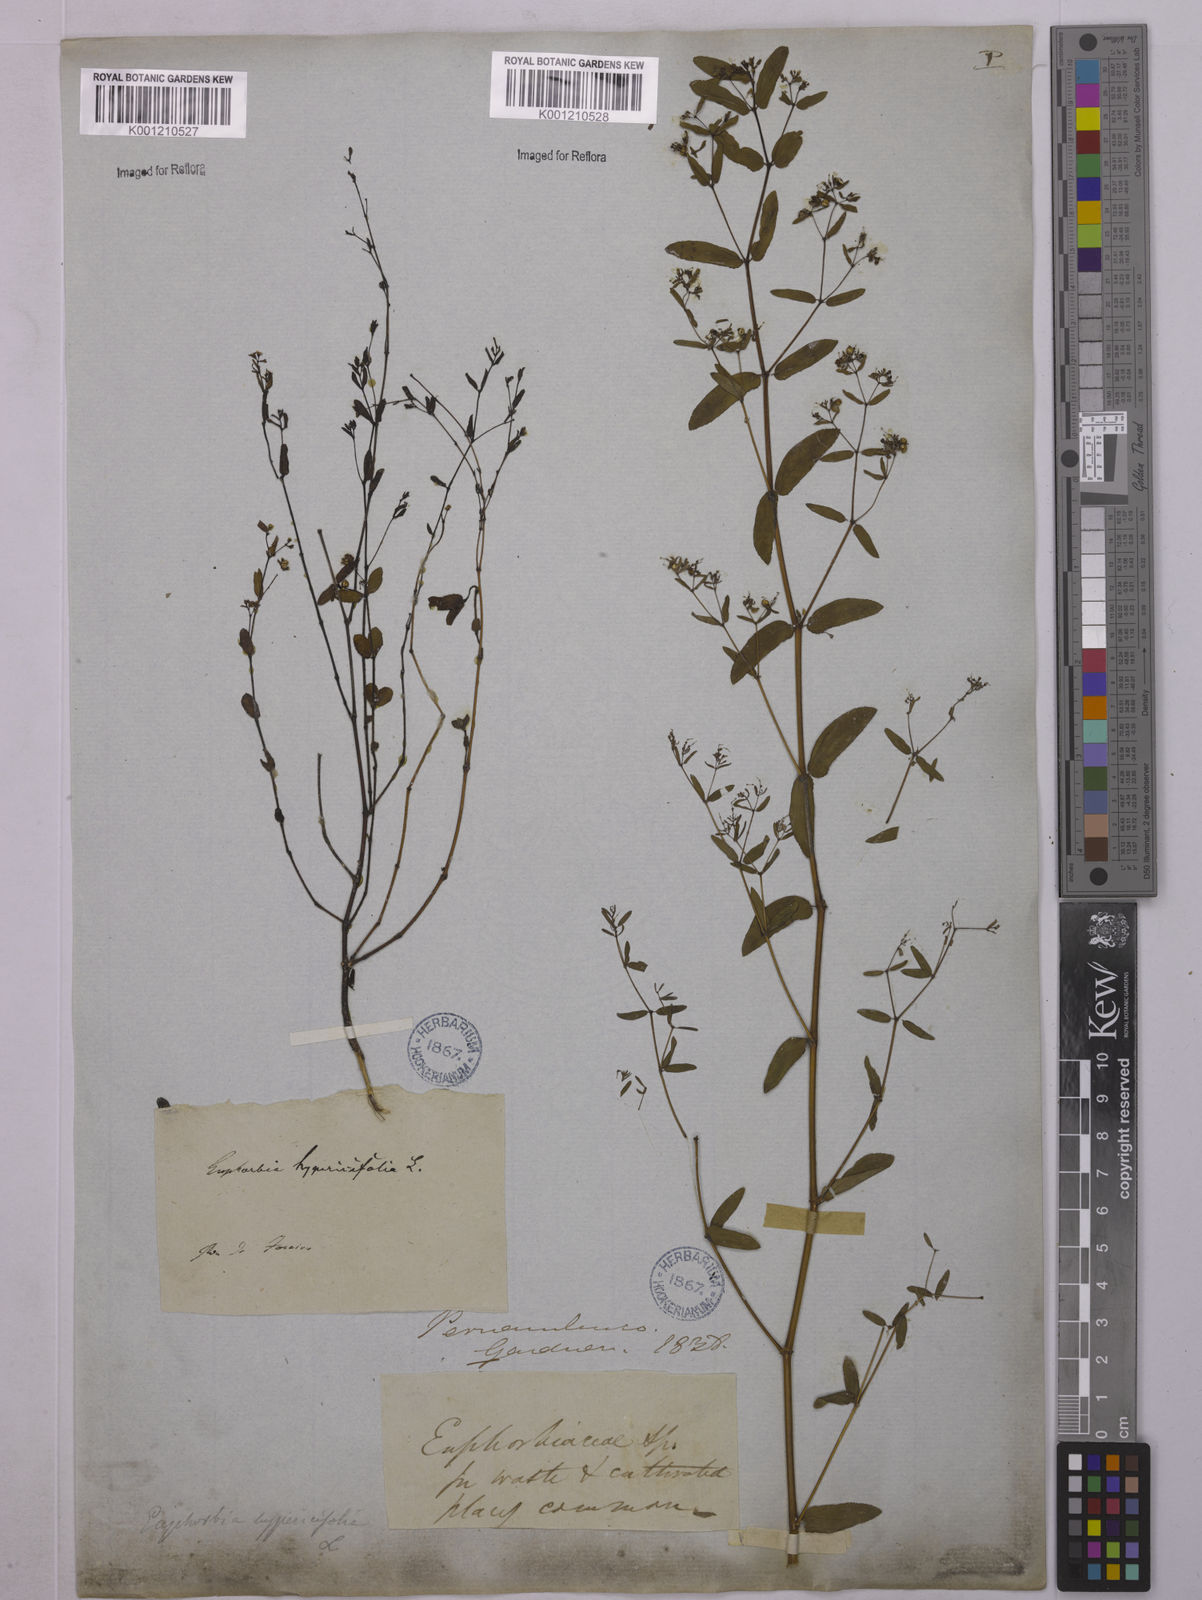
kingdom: Plantae
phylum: Tracheophyta
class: Magnoliopsida
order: Malpighiales
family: Euphorbiaceae
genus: Euphorbia
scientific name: Euphorbia hypericifolia
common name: Graceful sandmat
